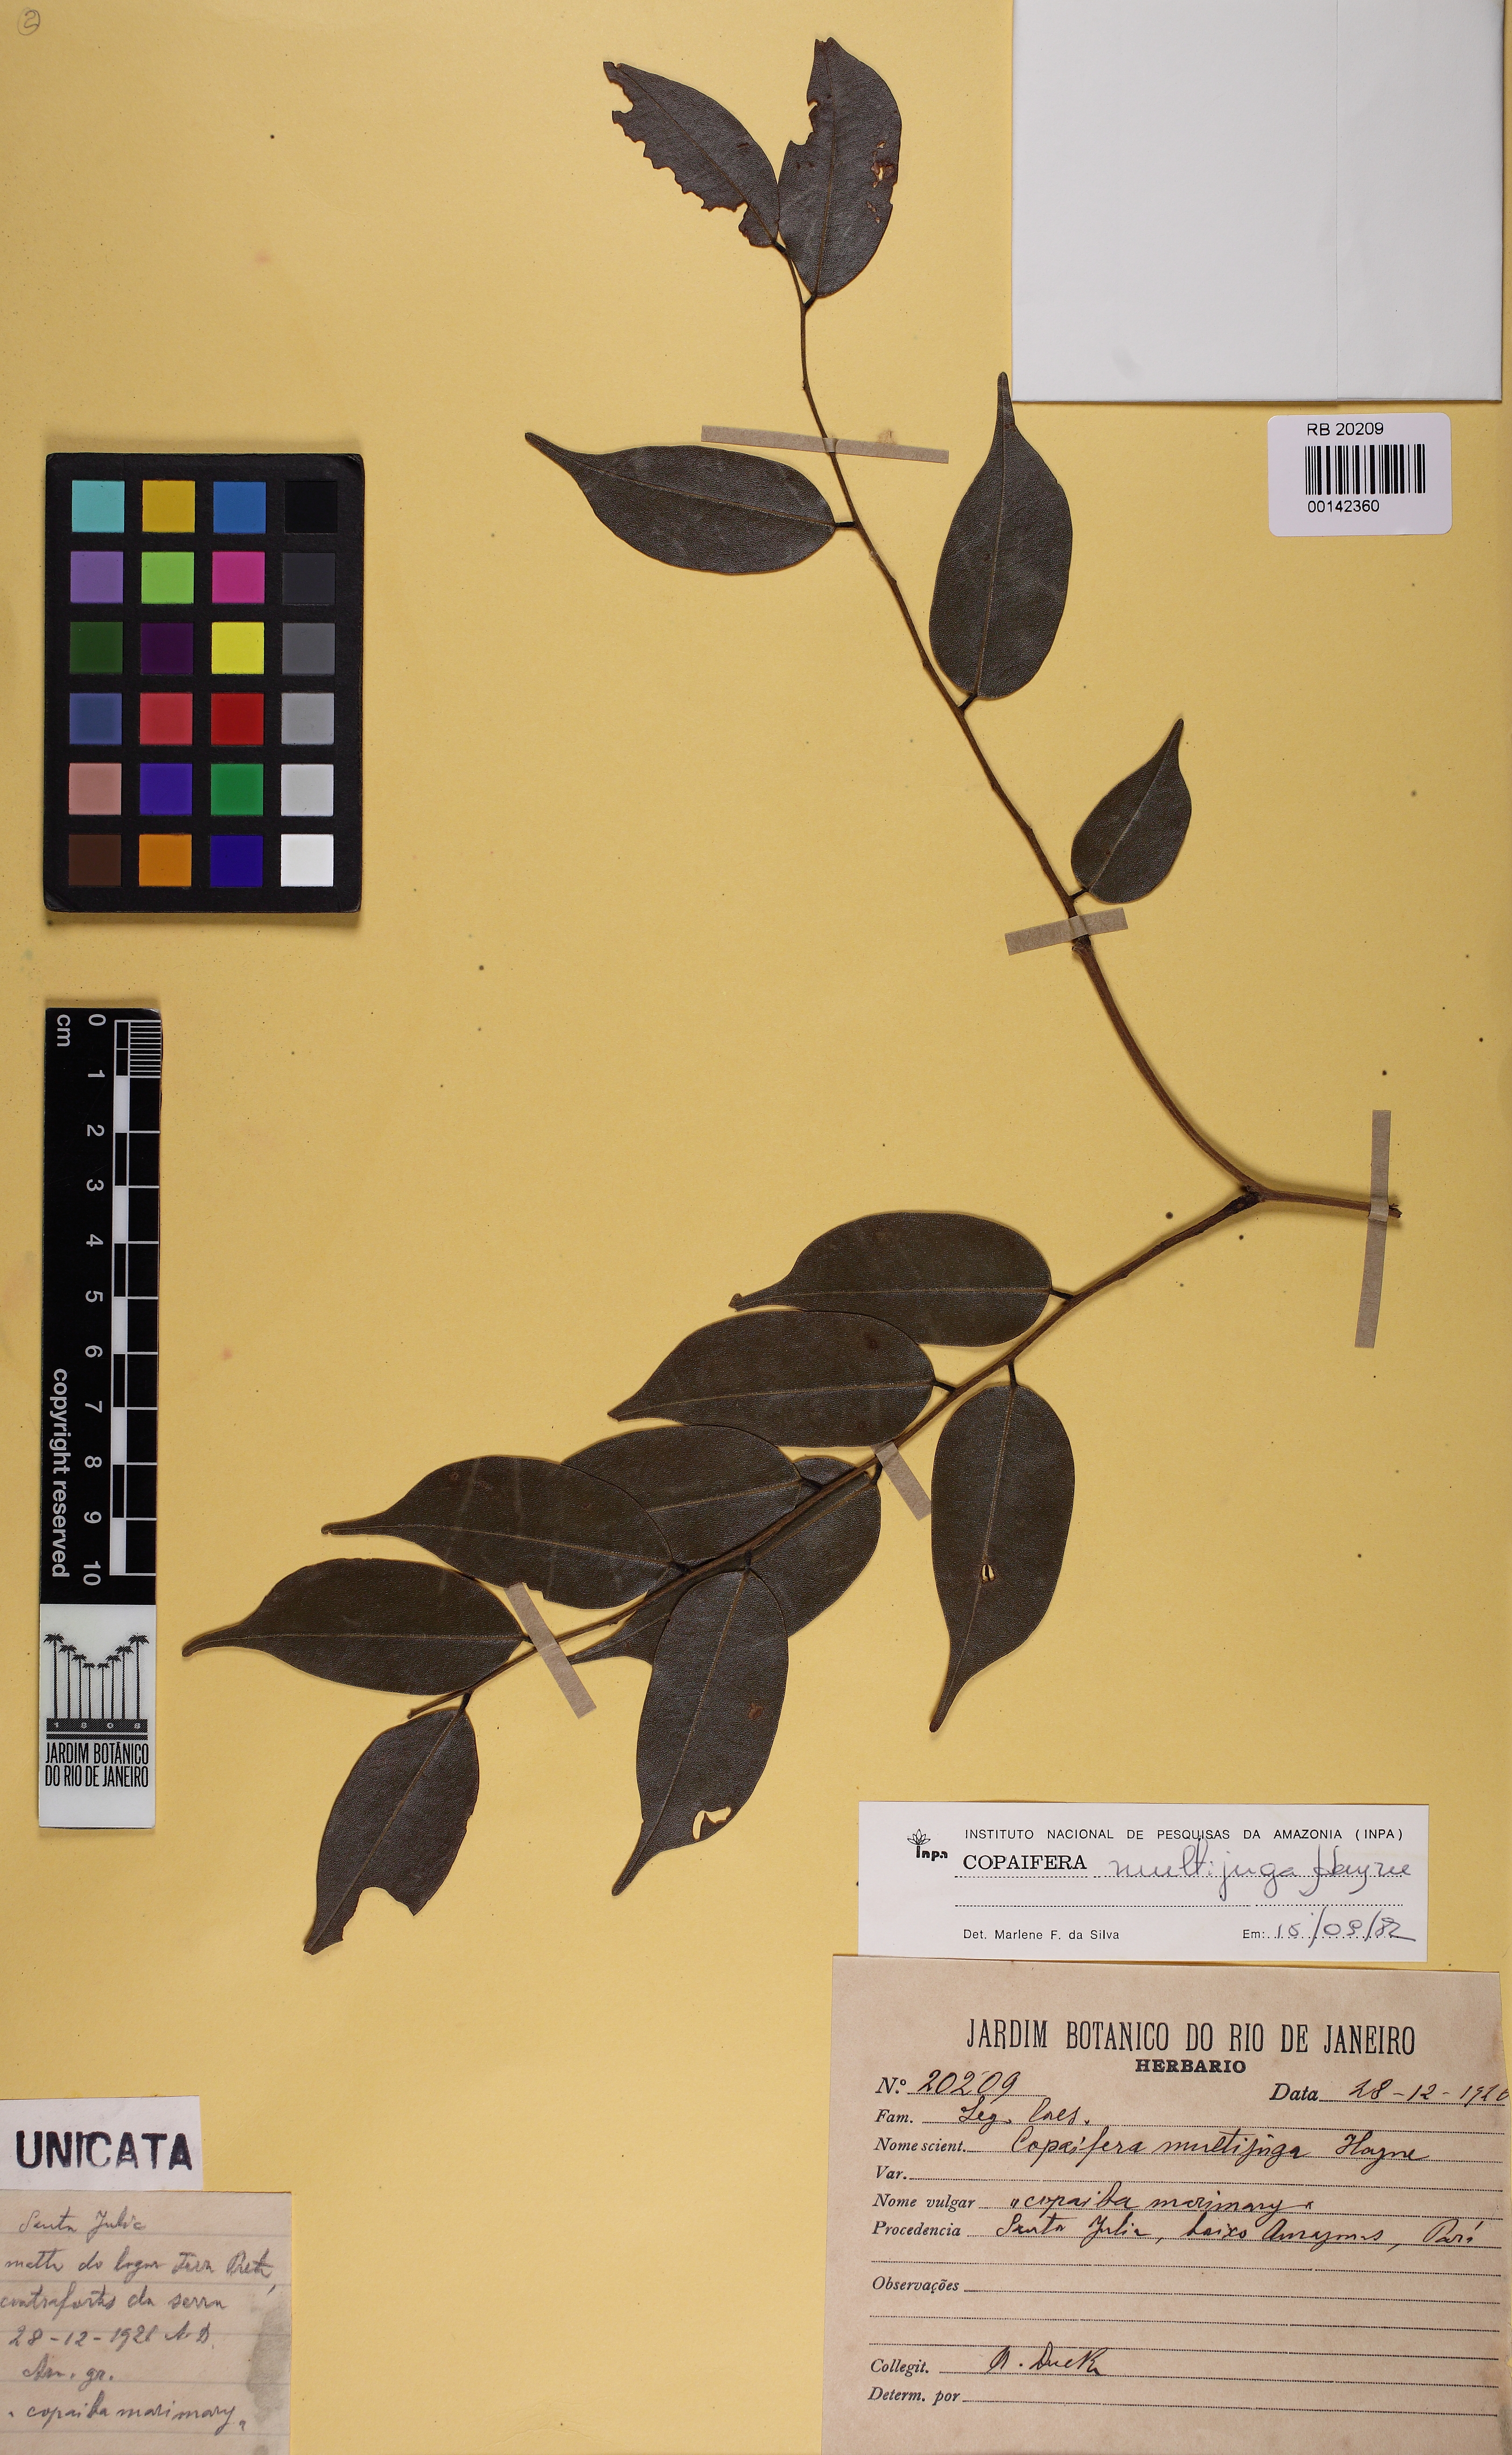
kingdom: Plantae
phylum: Tracheophyta
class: Magnoliopsida
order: Fabales
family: Fabaceae
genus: Copaifera
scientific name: Copaifera multijuga
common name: Brazilian copaiba
